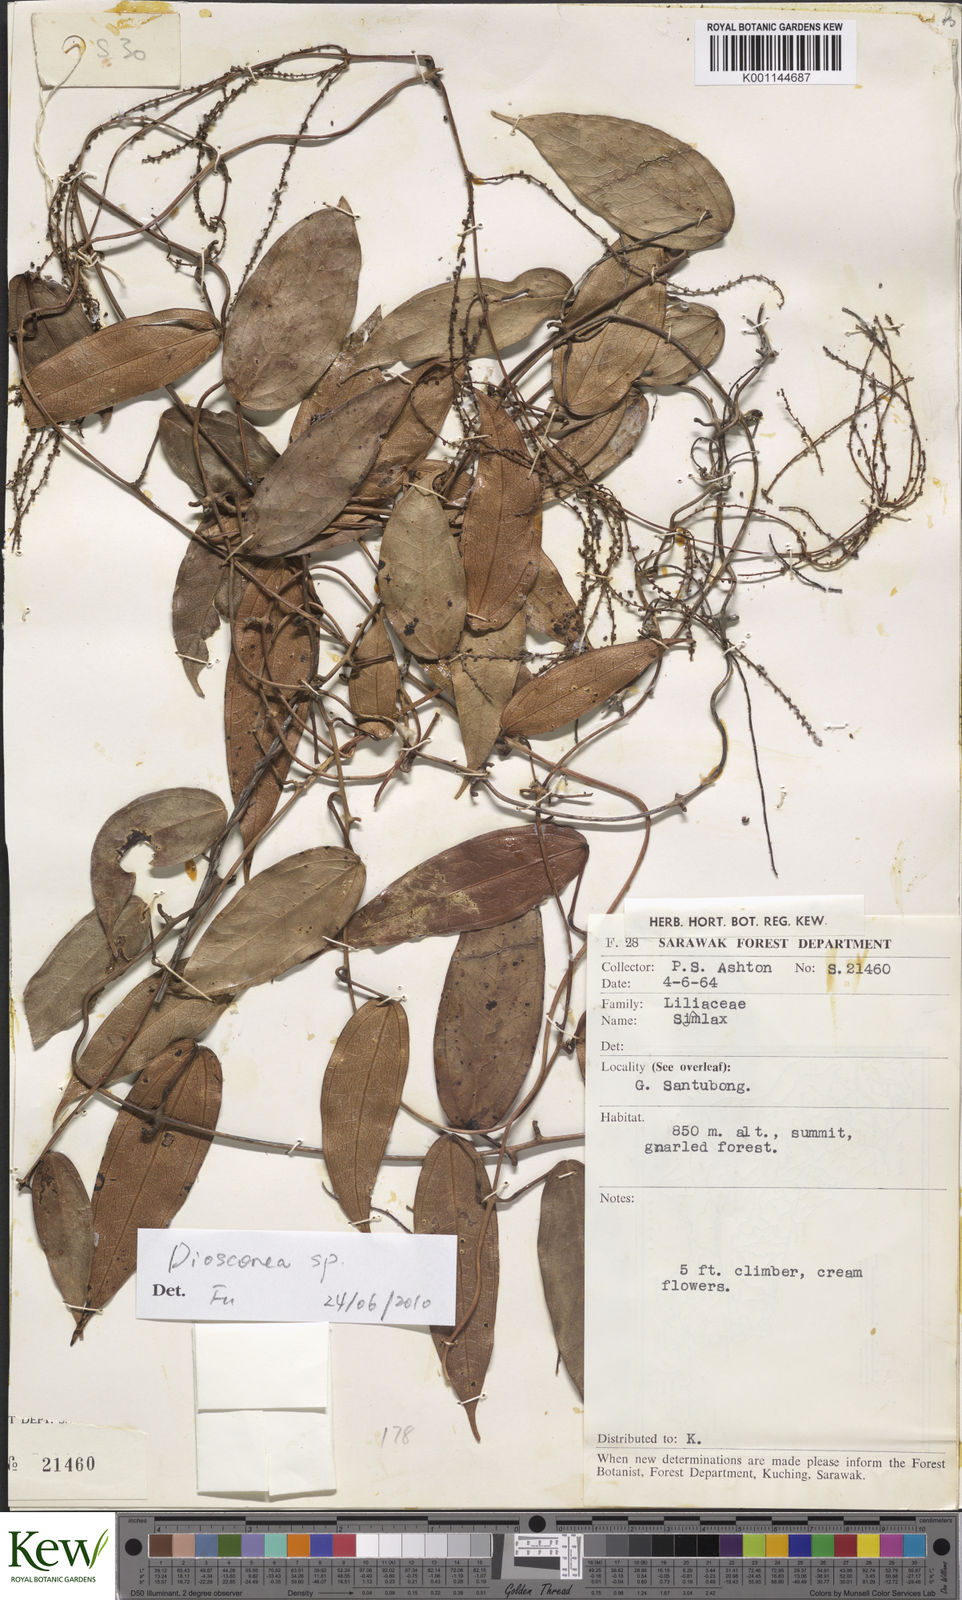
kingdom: Plantae
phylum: Tracheophyta
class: Liliopsida
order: Dioscoreales
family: Dioscoreaceae
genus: Dioscorea
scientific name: Dioscorea
